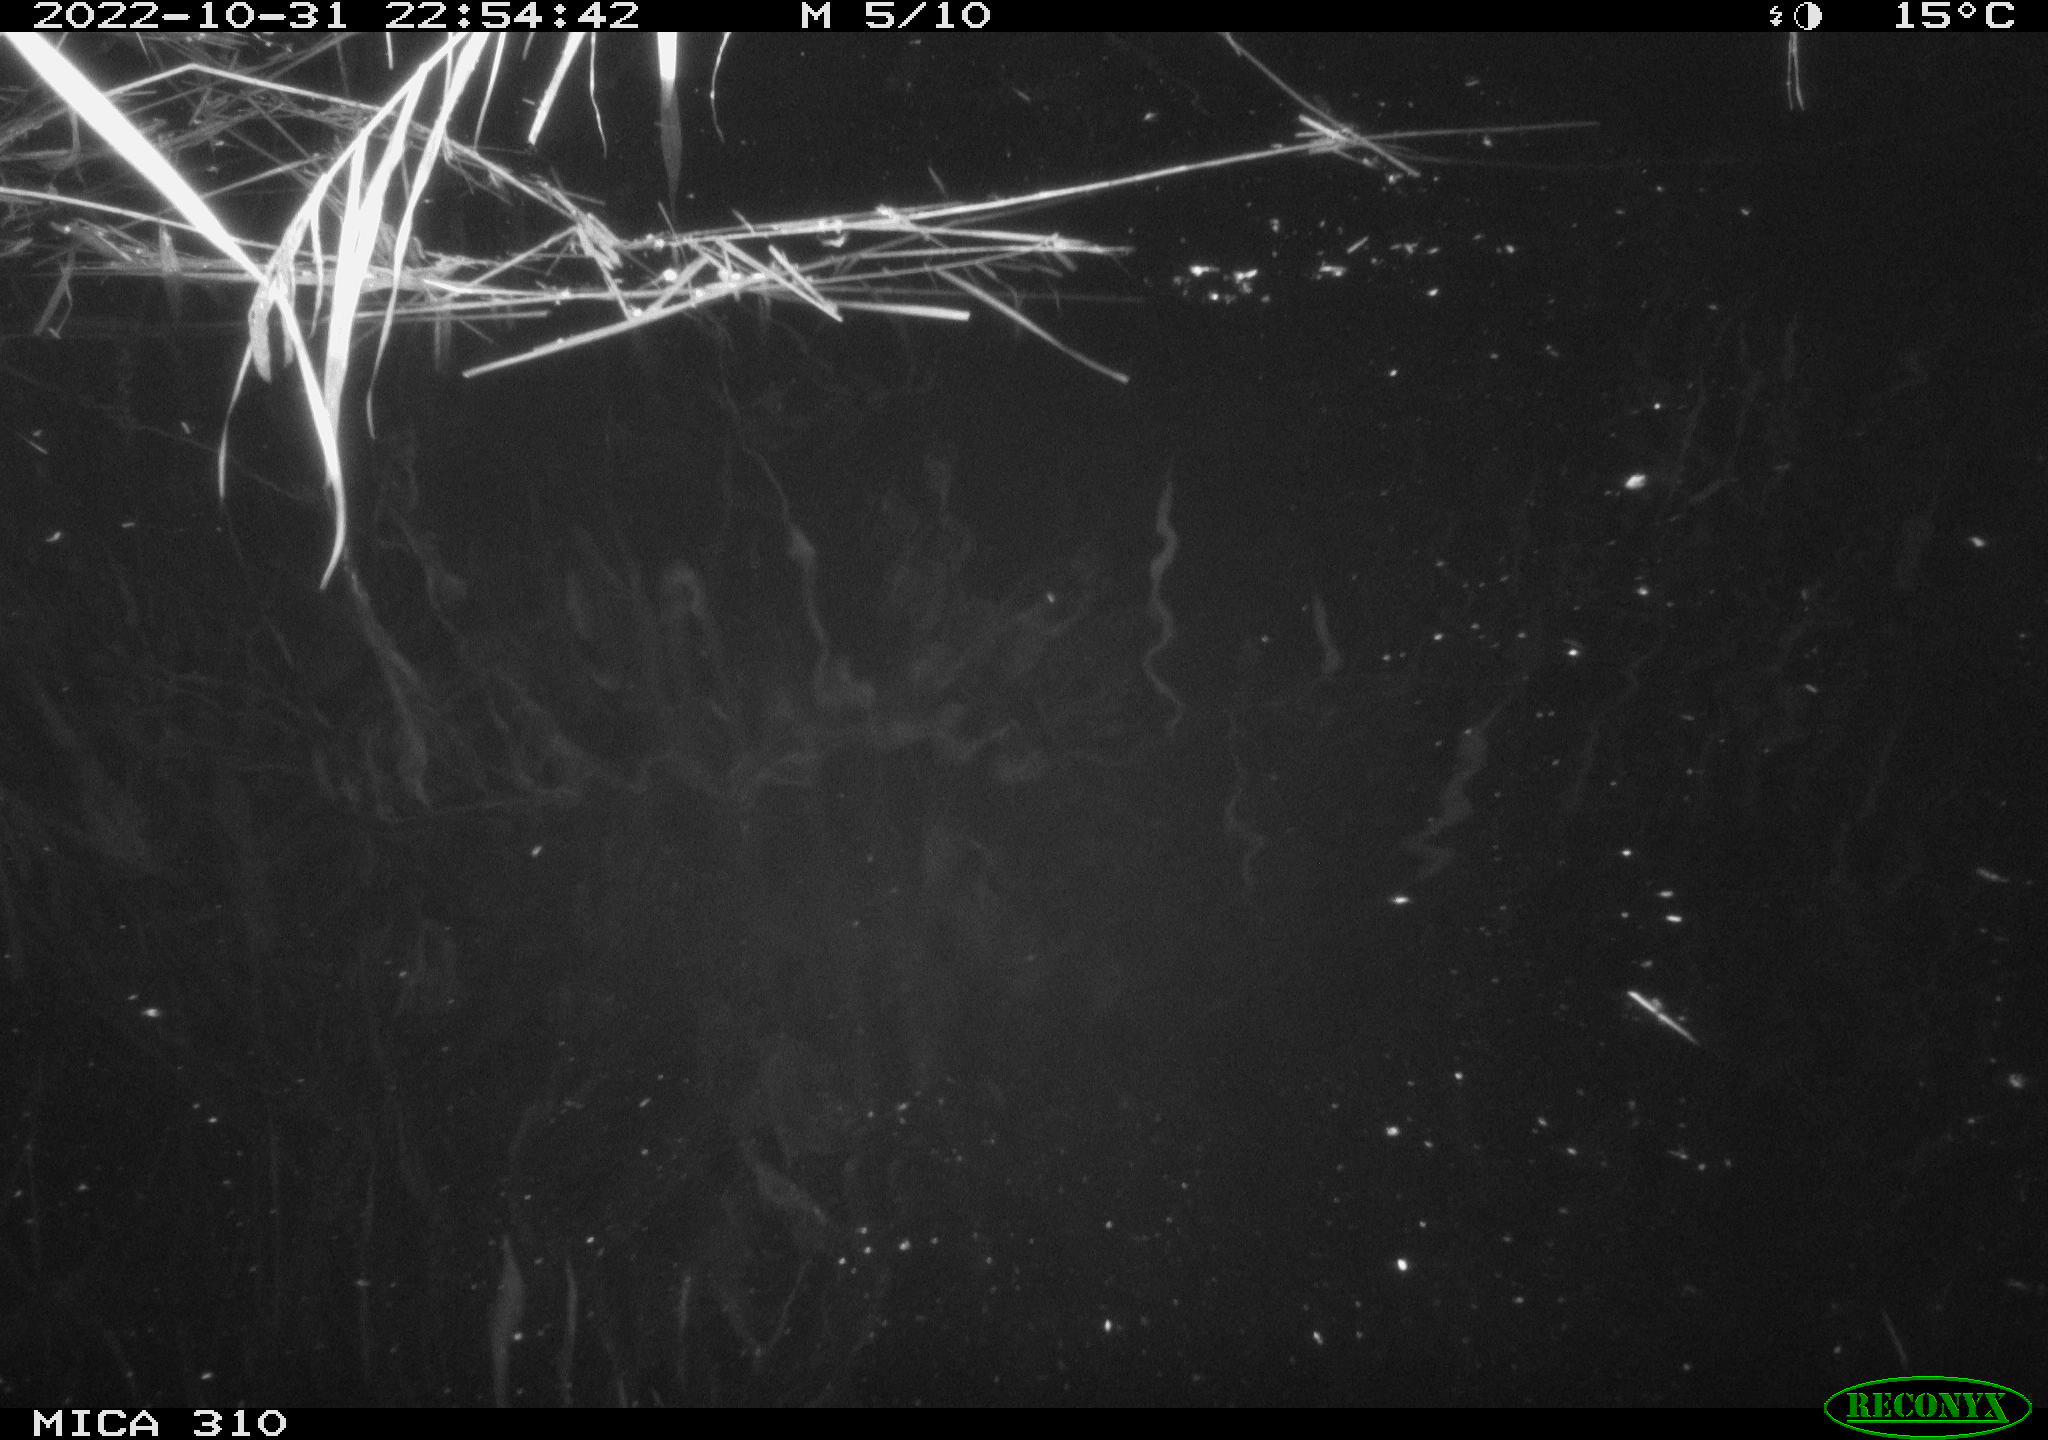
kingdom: Animalia
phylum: Chordata
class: Mammalia
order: Rodentia
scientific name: Rodentia
